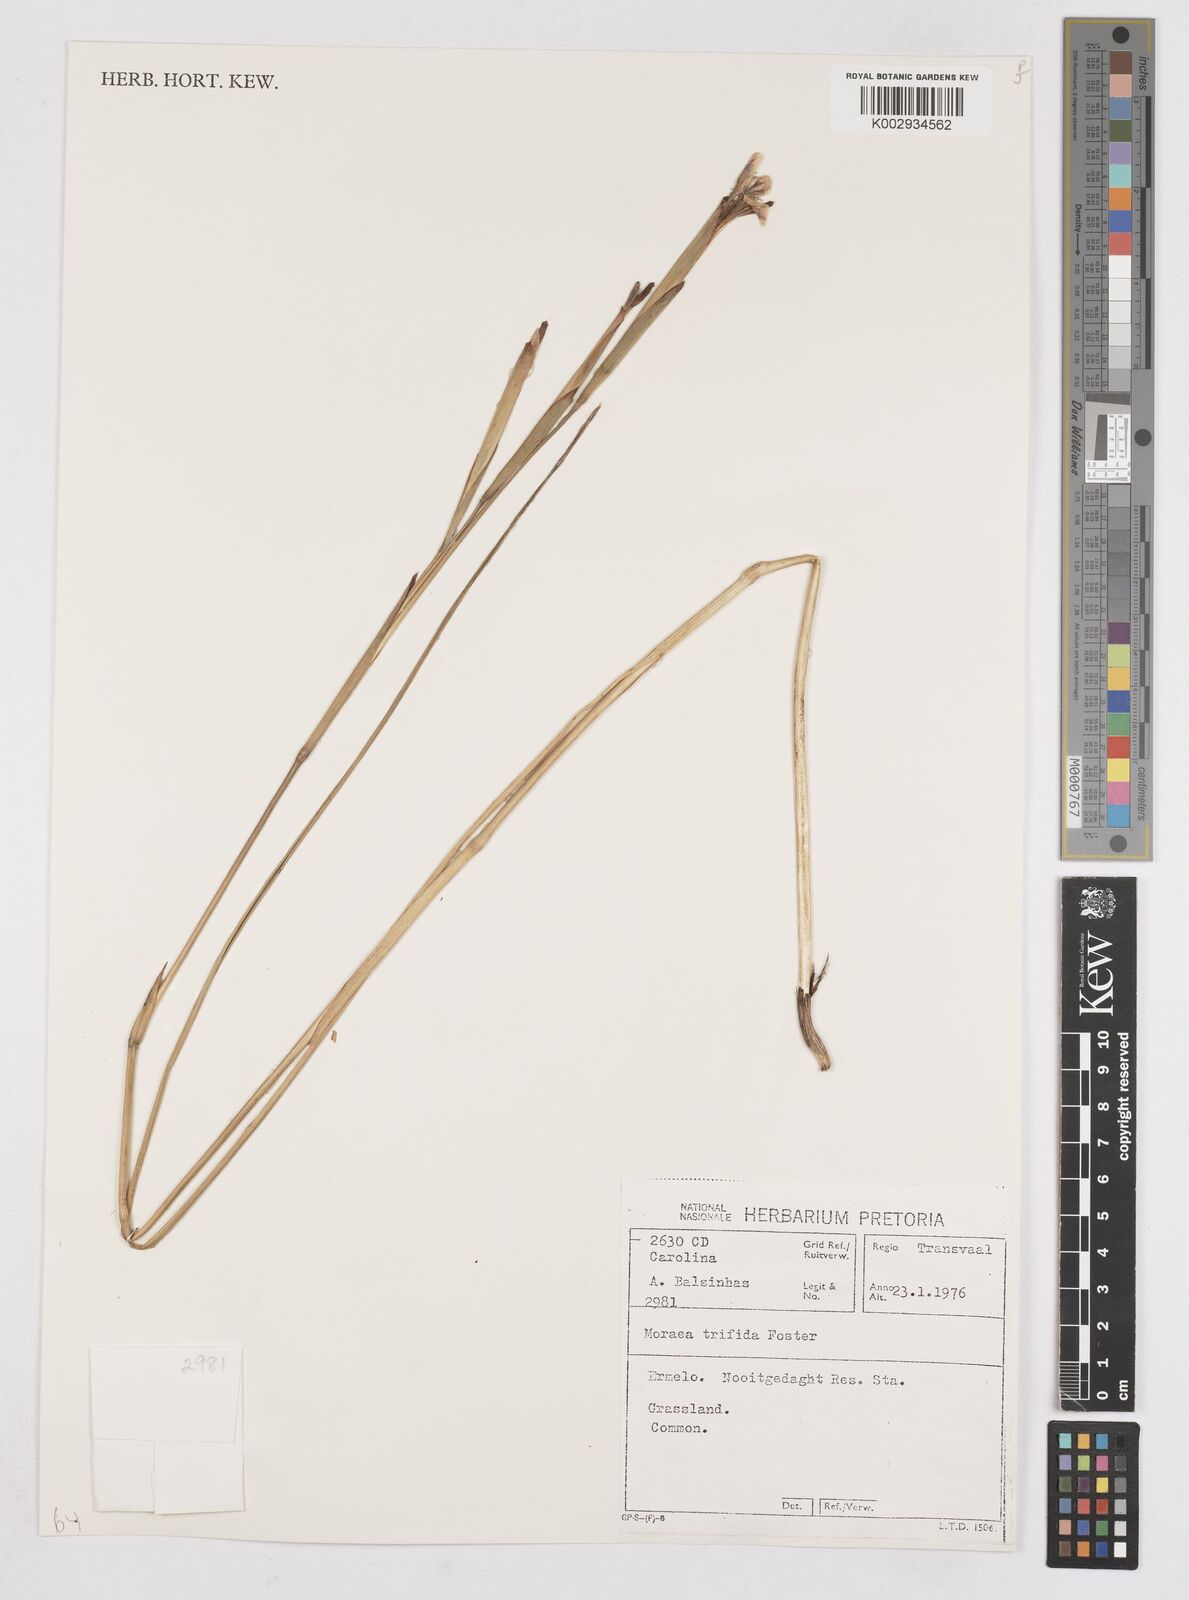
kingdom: Plantae
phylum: Tracheophyta
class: Liliopsida
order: Asparagales
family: Iridaceae
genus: Moraea
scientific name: Moraea trifida
